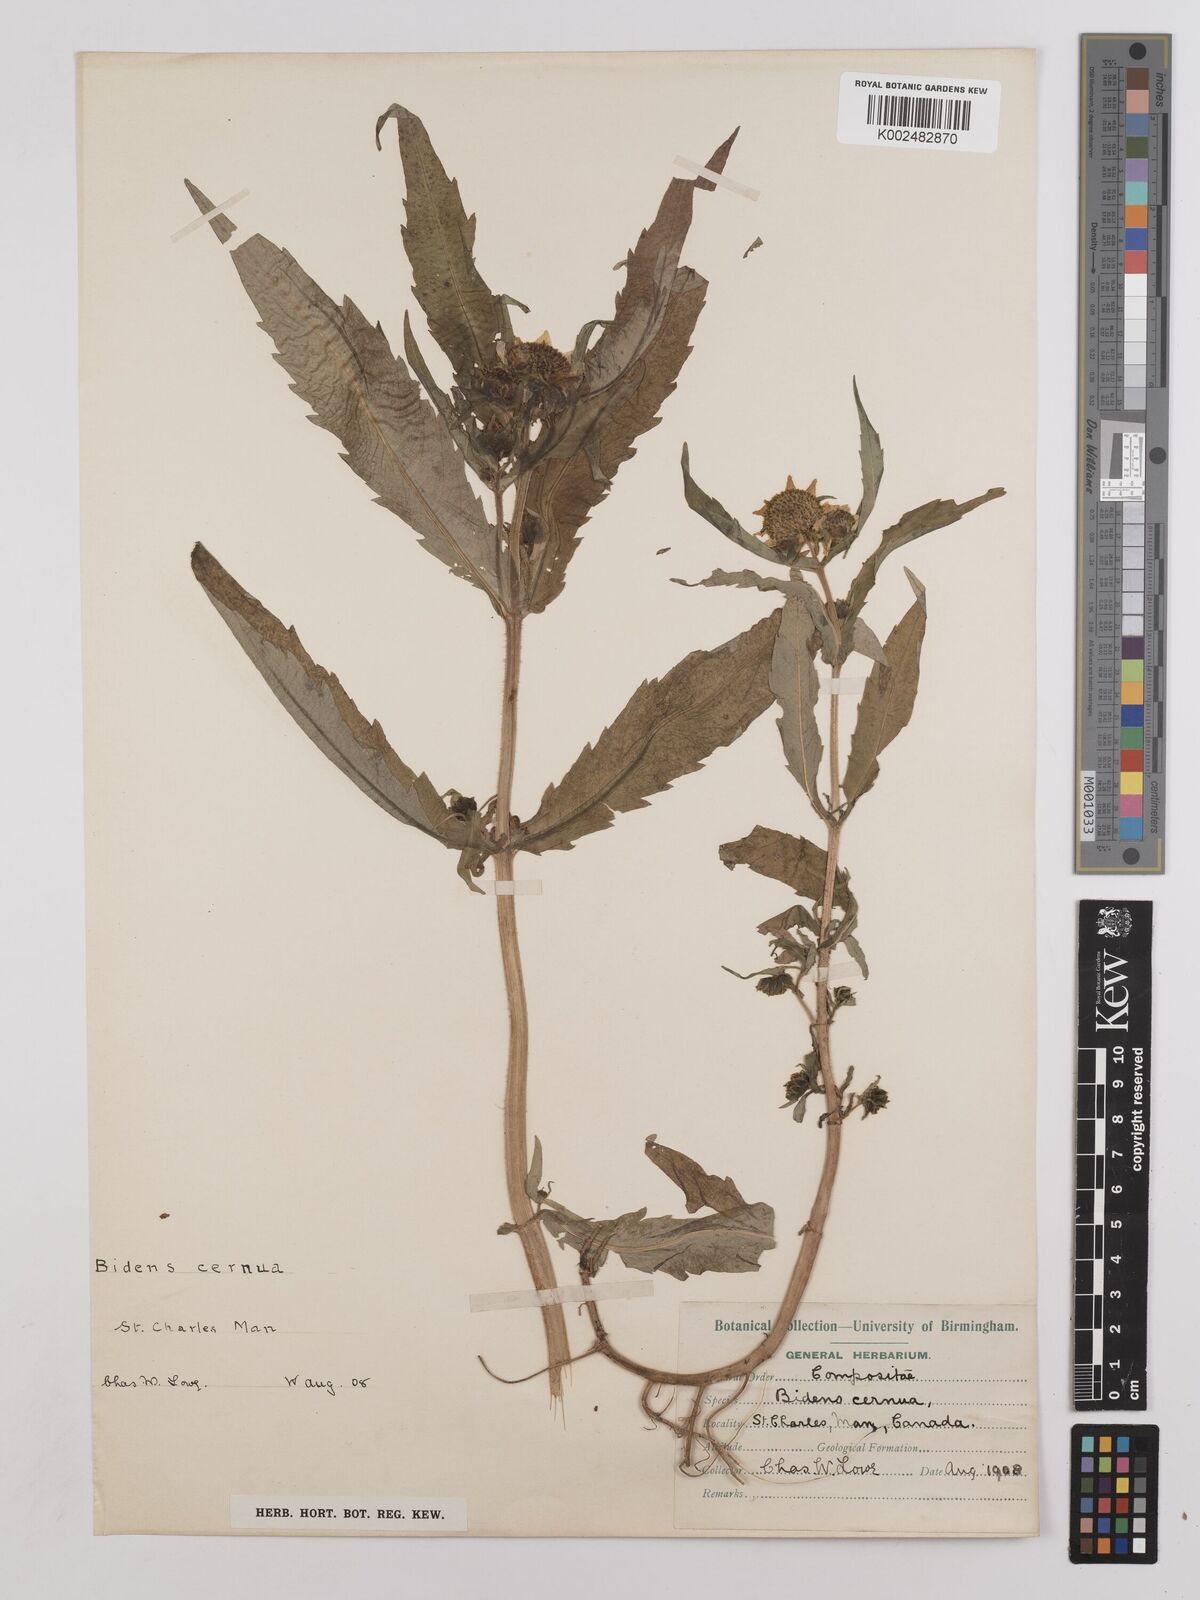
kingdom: Plantae
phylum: Tracheophyta
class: Magnoliopsida
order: Asterales
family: Asteraceae
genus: Bidens
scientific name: Bidens cernua
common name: Nodding bur-marigold
